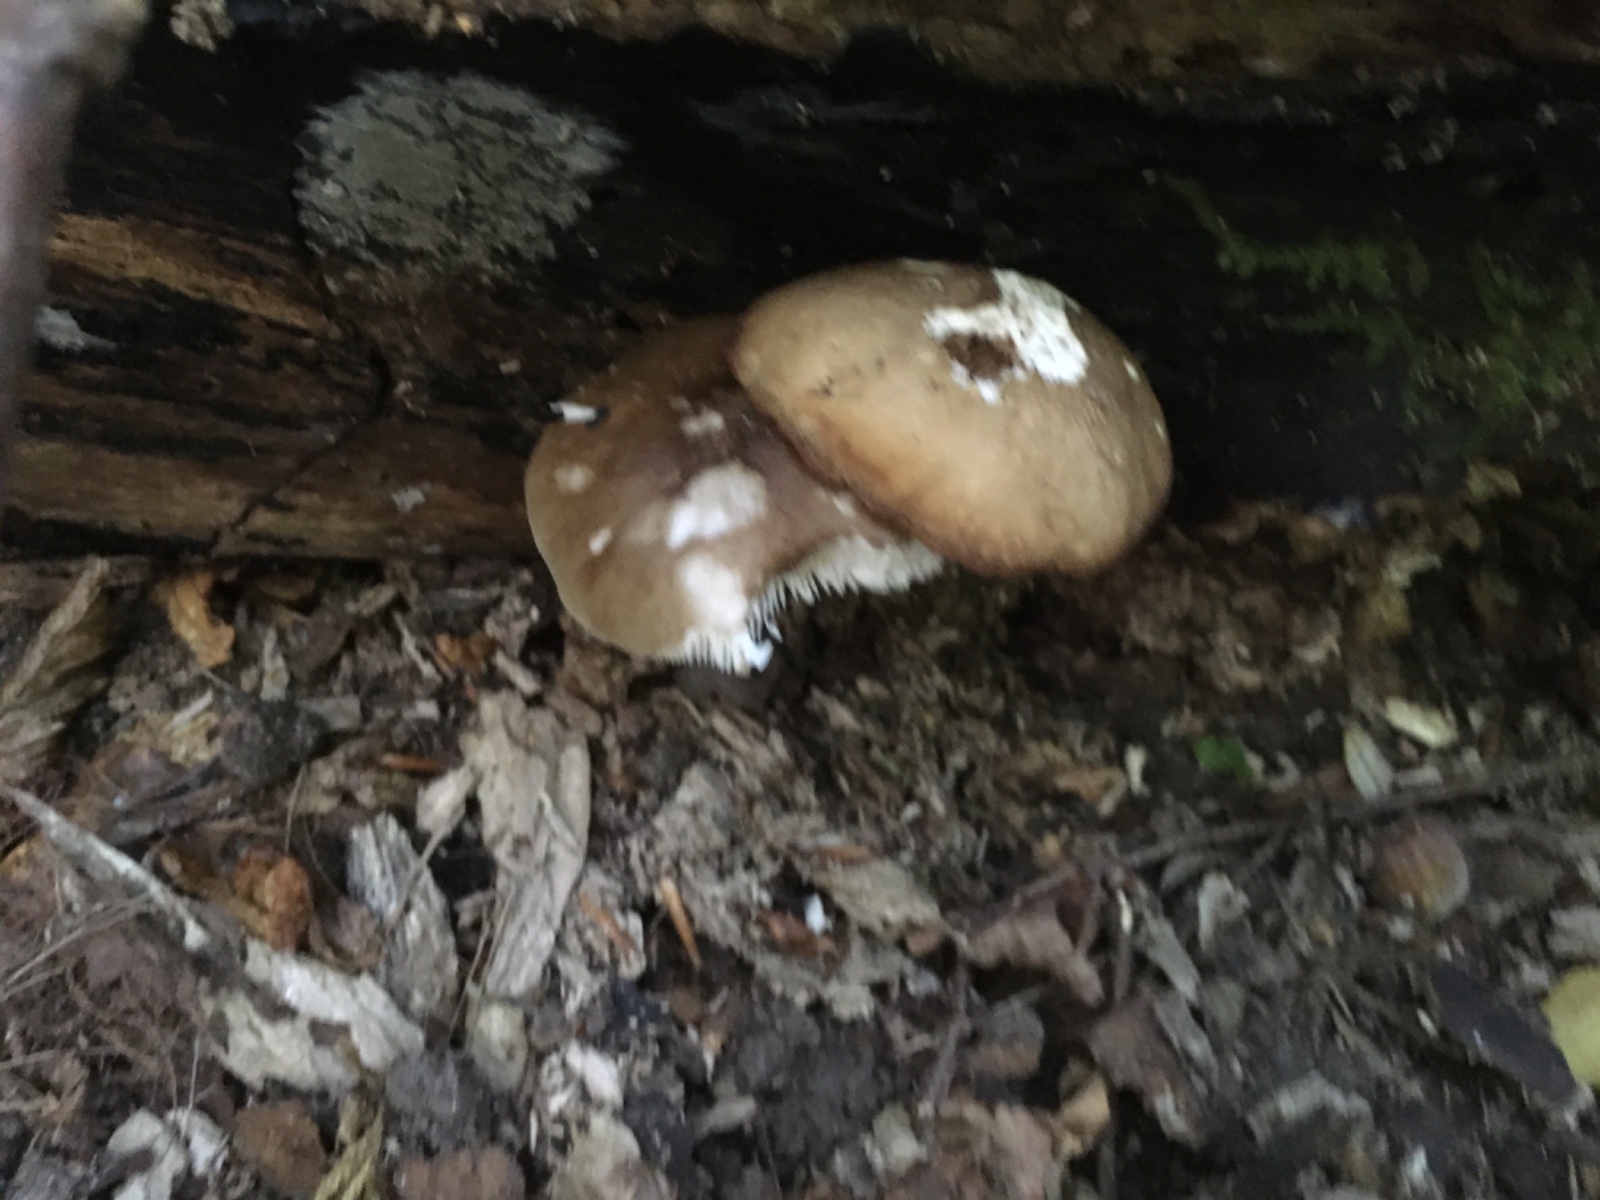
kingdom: Fungi
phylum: Basidiomycota
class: Agaricomycetes
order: Agaricales
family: Pluteaceae
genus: Pluteus
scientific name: Pluteus cervinus
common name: sodfarvet skærmhat
